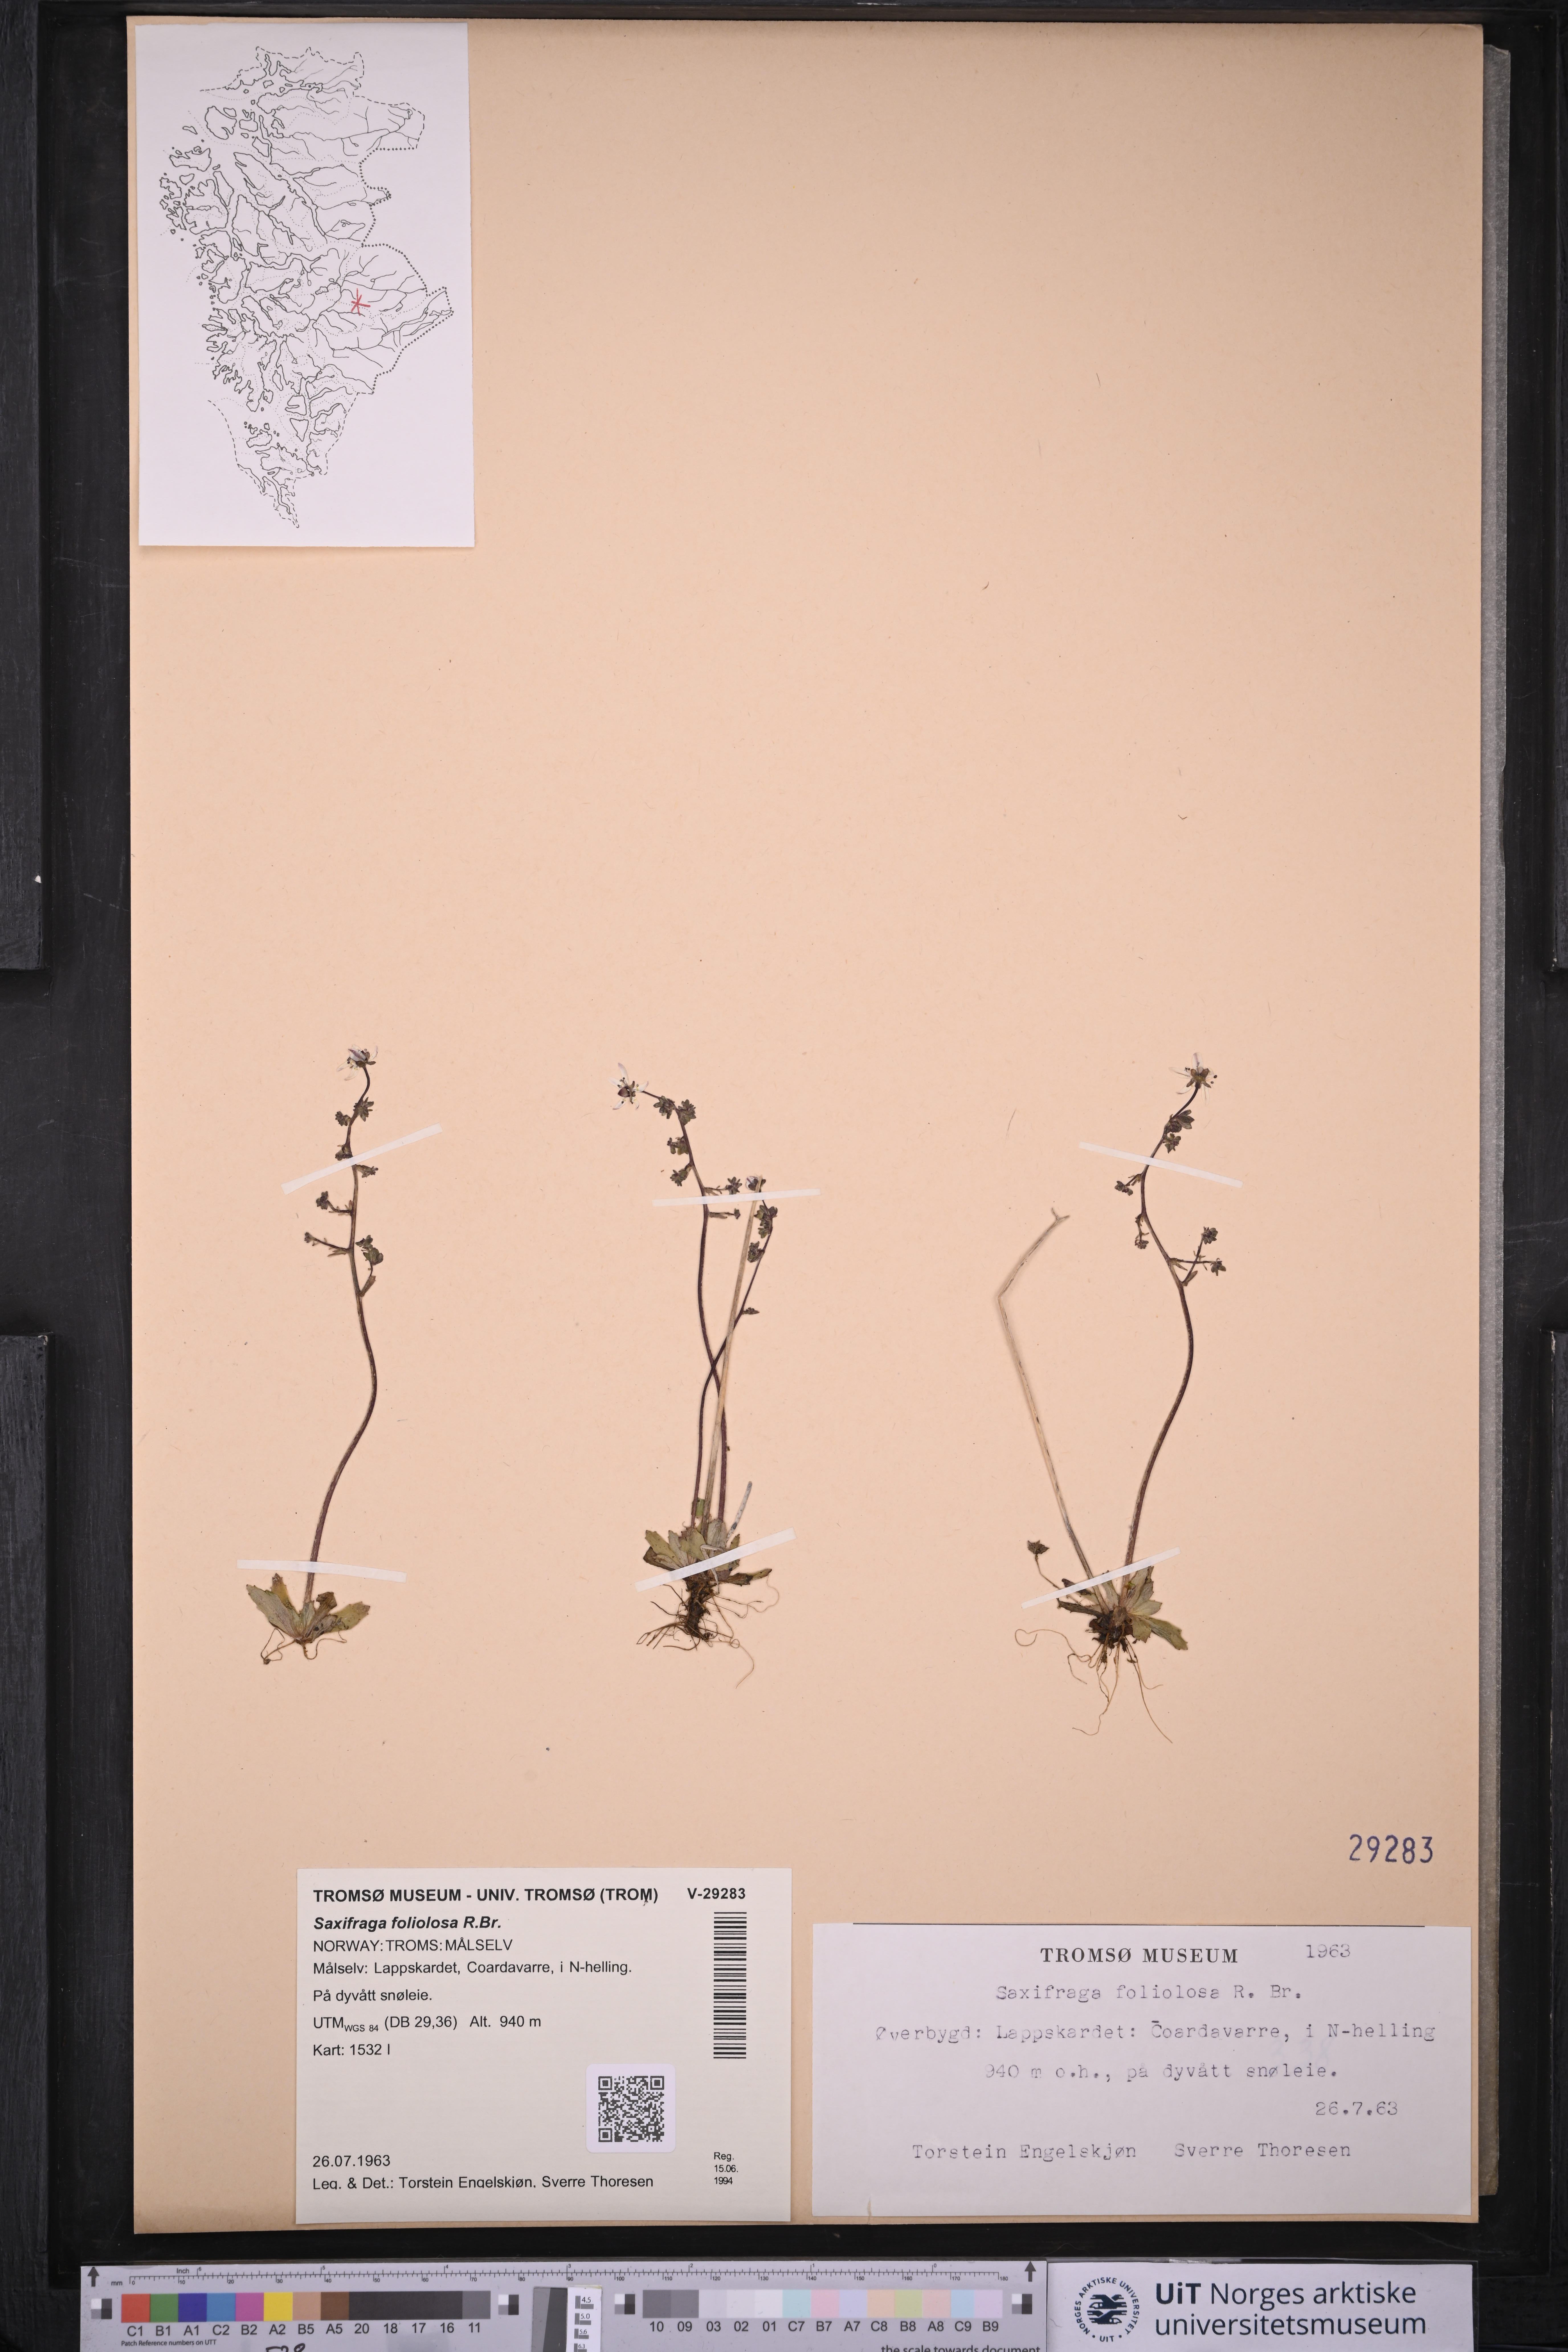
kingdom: Plantae
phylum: Tracheophyta
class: Magnoliopsida
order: Saxifragales
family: Saxifragaceae
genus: Micranthes
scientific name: Micranthes foliolosa
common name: Leafystem saxifrage
